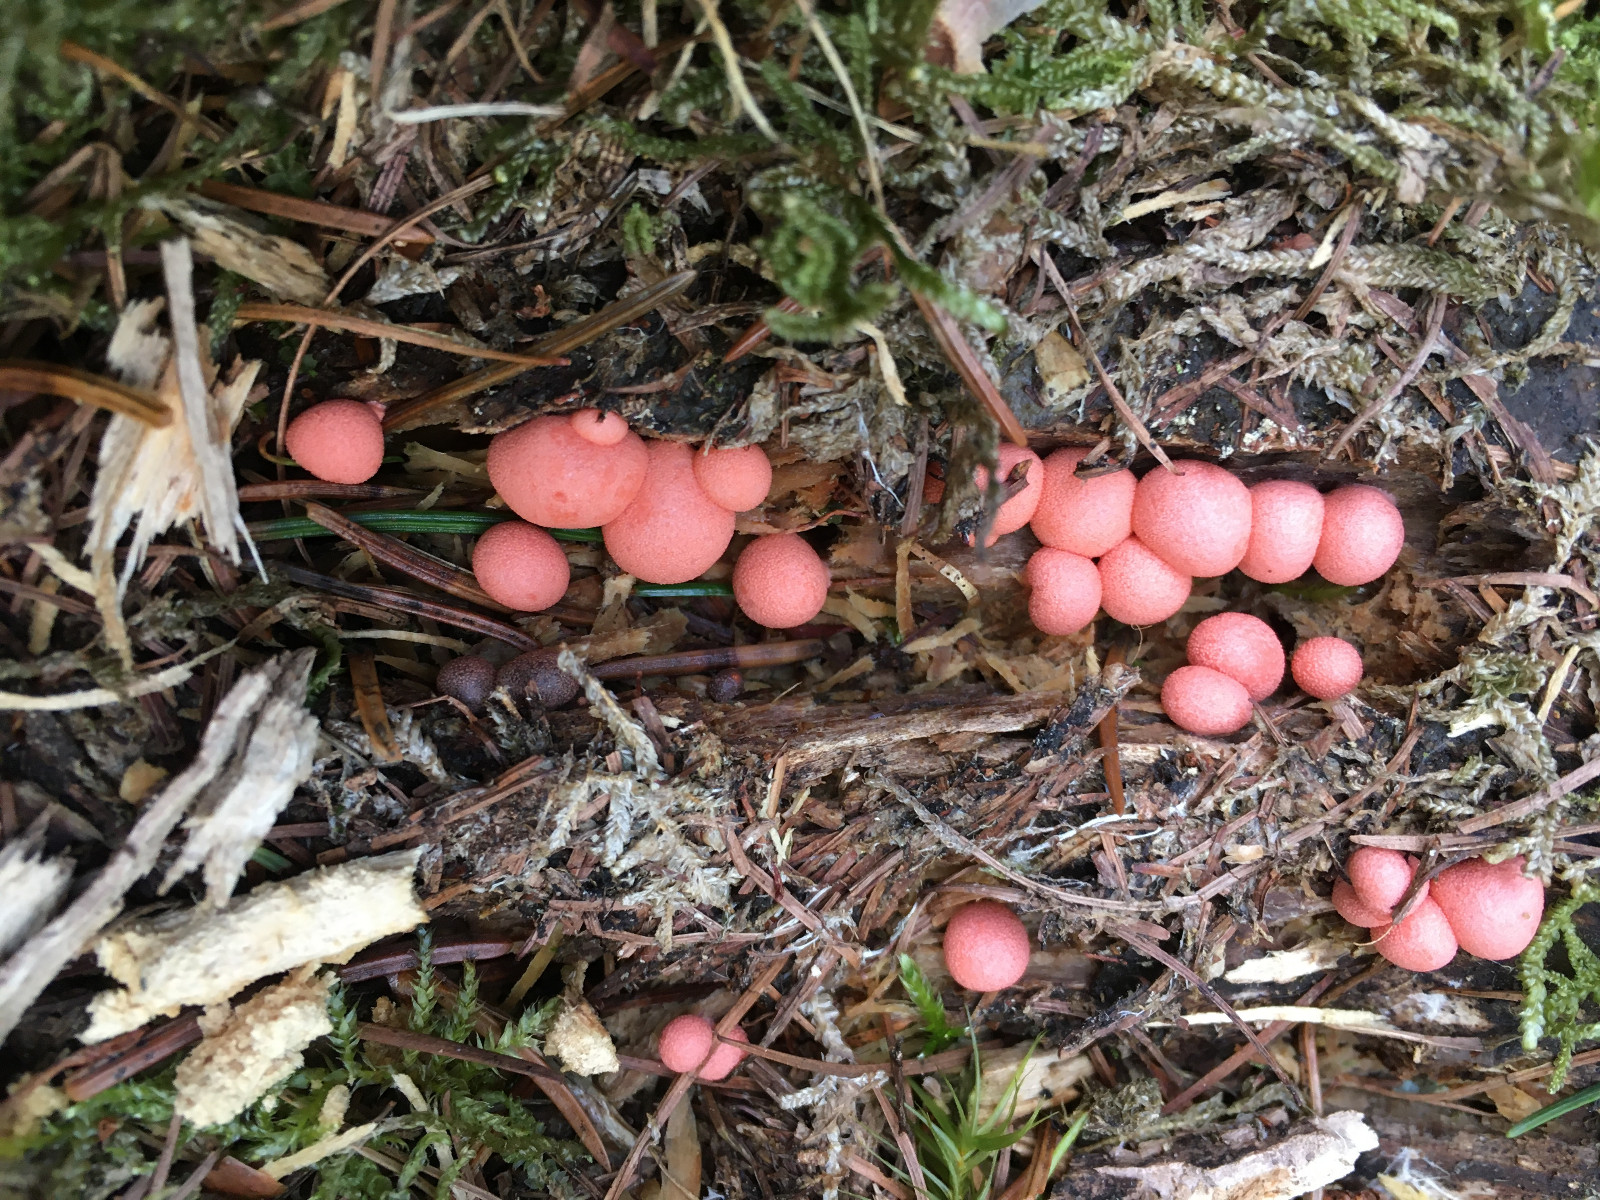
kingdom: Protozoa
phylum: Mycetozoa
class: Myxomycetes
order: Cribrariales
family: Tubiferaceae
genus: Lycogala
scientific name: Lycogala epidendrum
